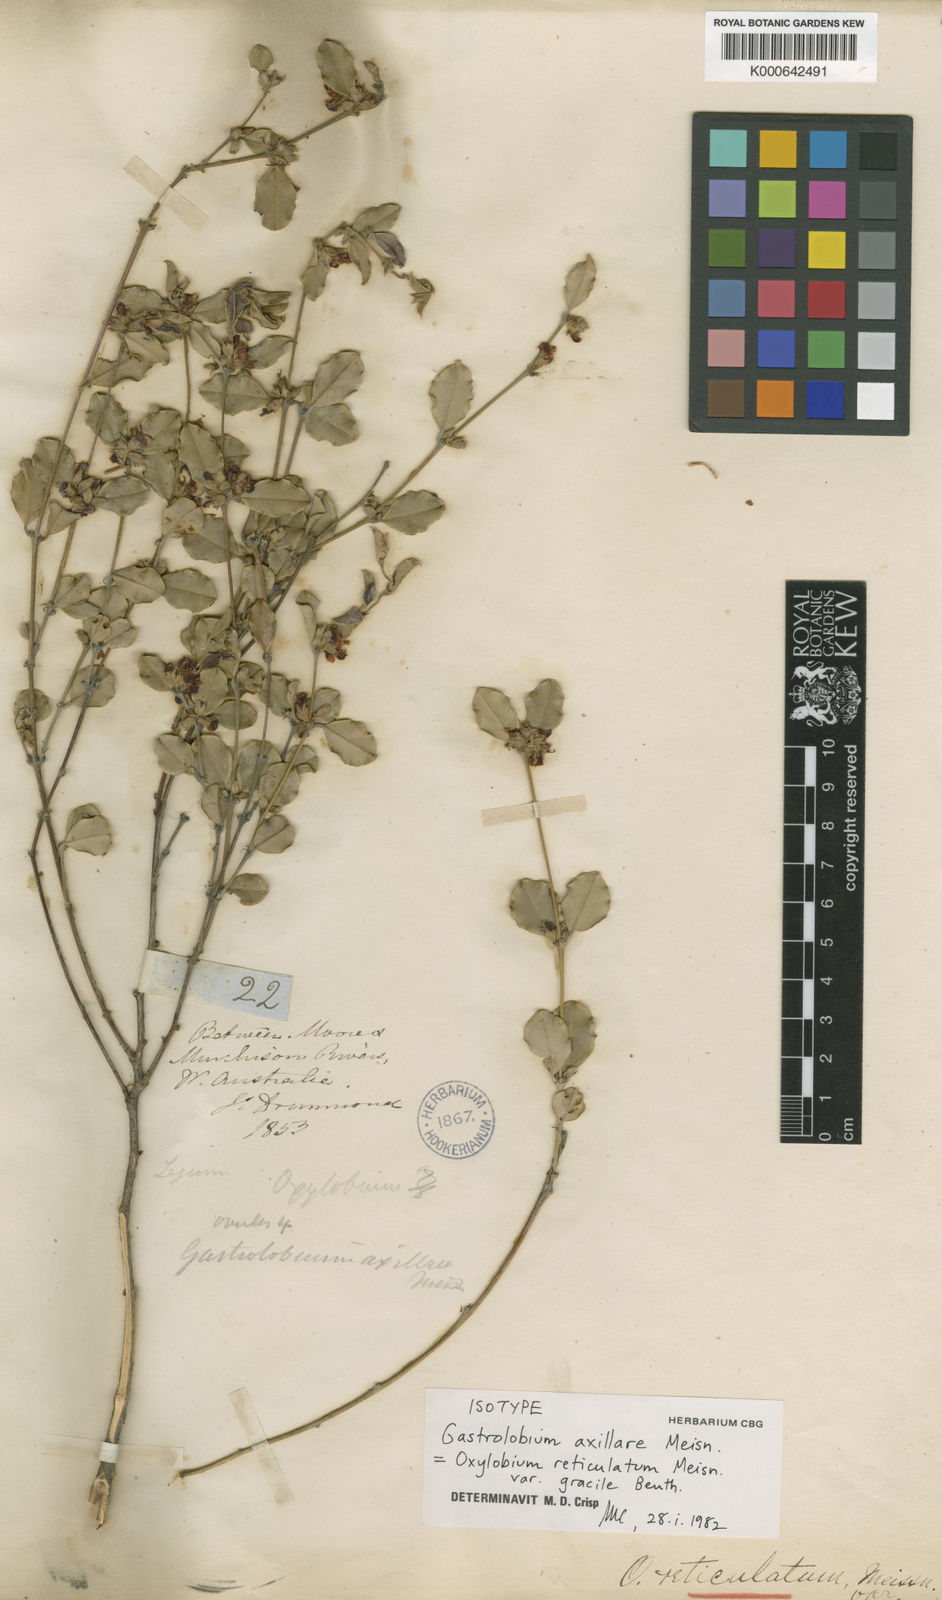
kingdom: Plantae
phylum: Tracheophyta
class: Magnoliopsida
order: Fabales
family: Fabaceae
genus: Gastrolobium
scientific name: Gastrolobium axillare
